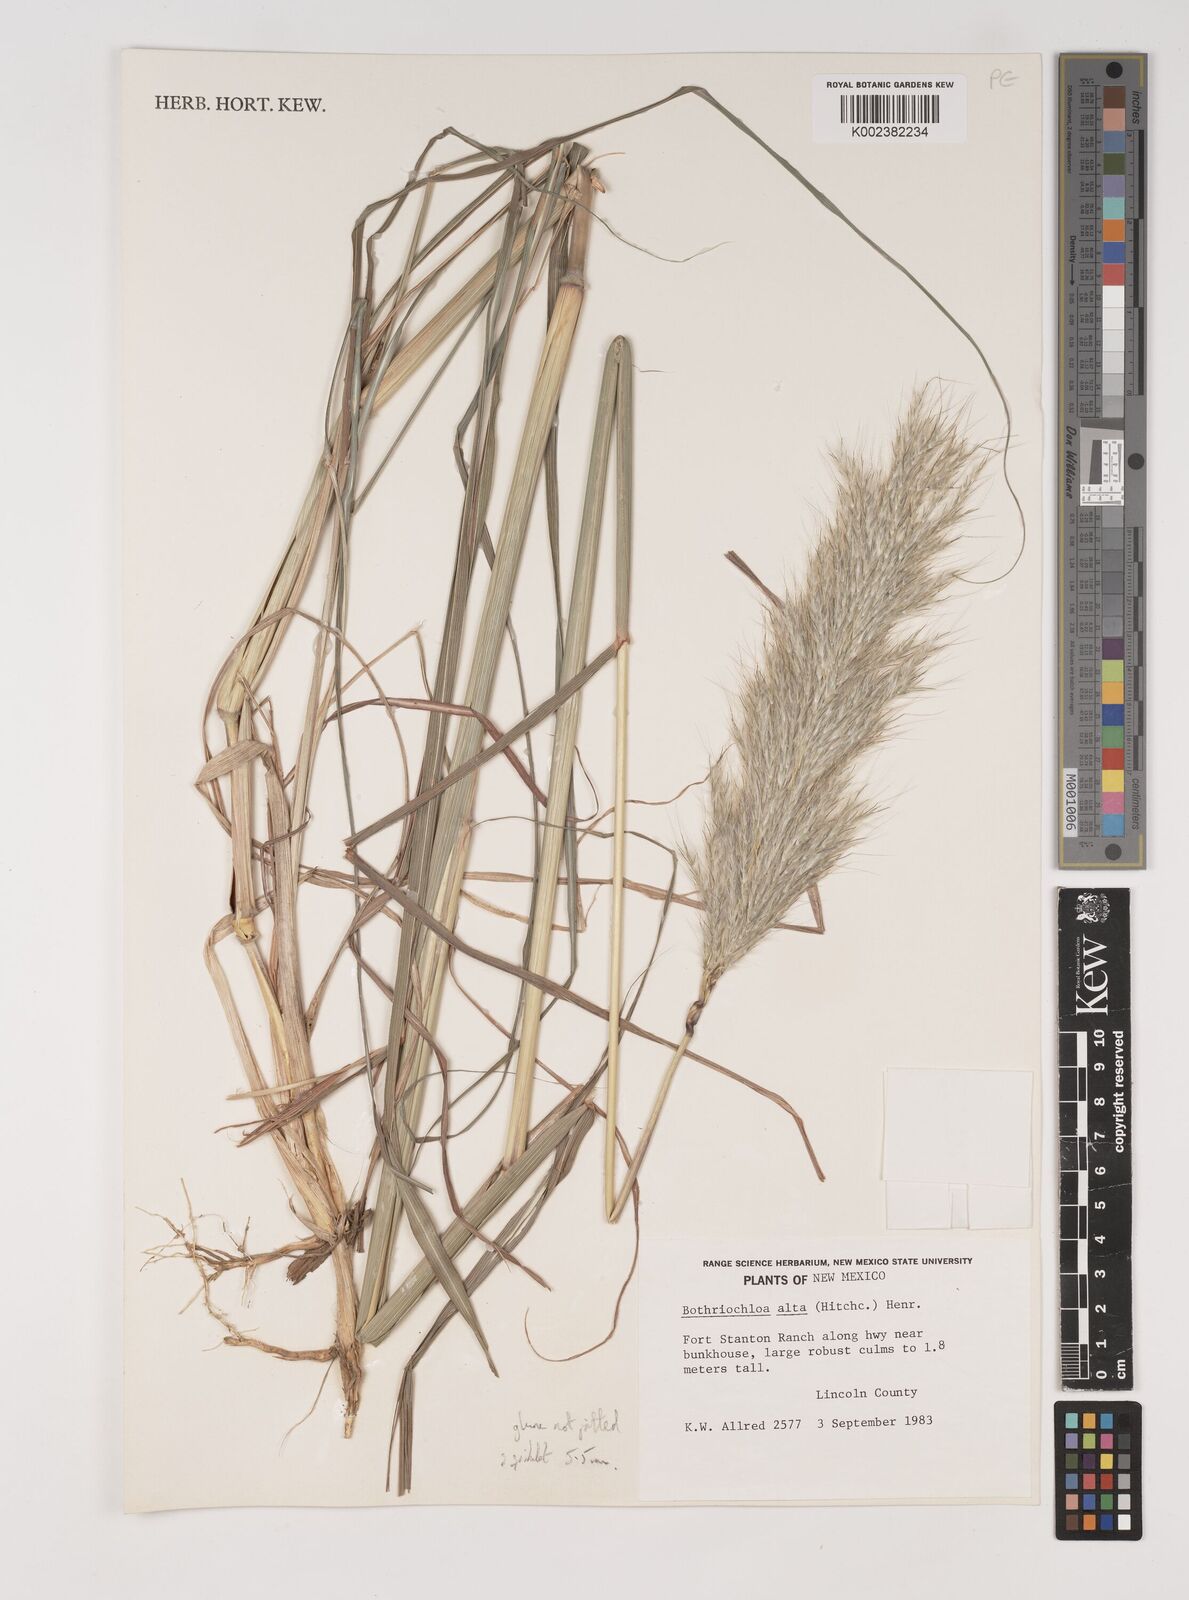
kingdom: Plantae
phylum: Tracheophyta
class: Liliopsida
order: Poales
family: Poaceae
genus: Bothriochloa
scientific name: Bothriochloa
